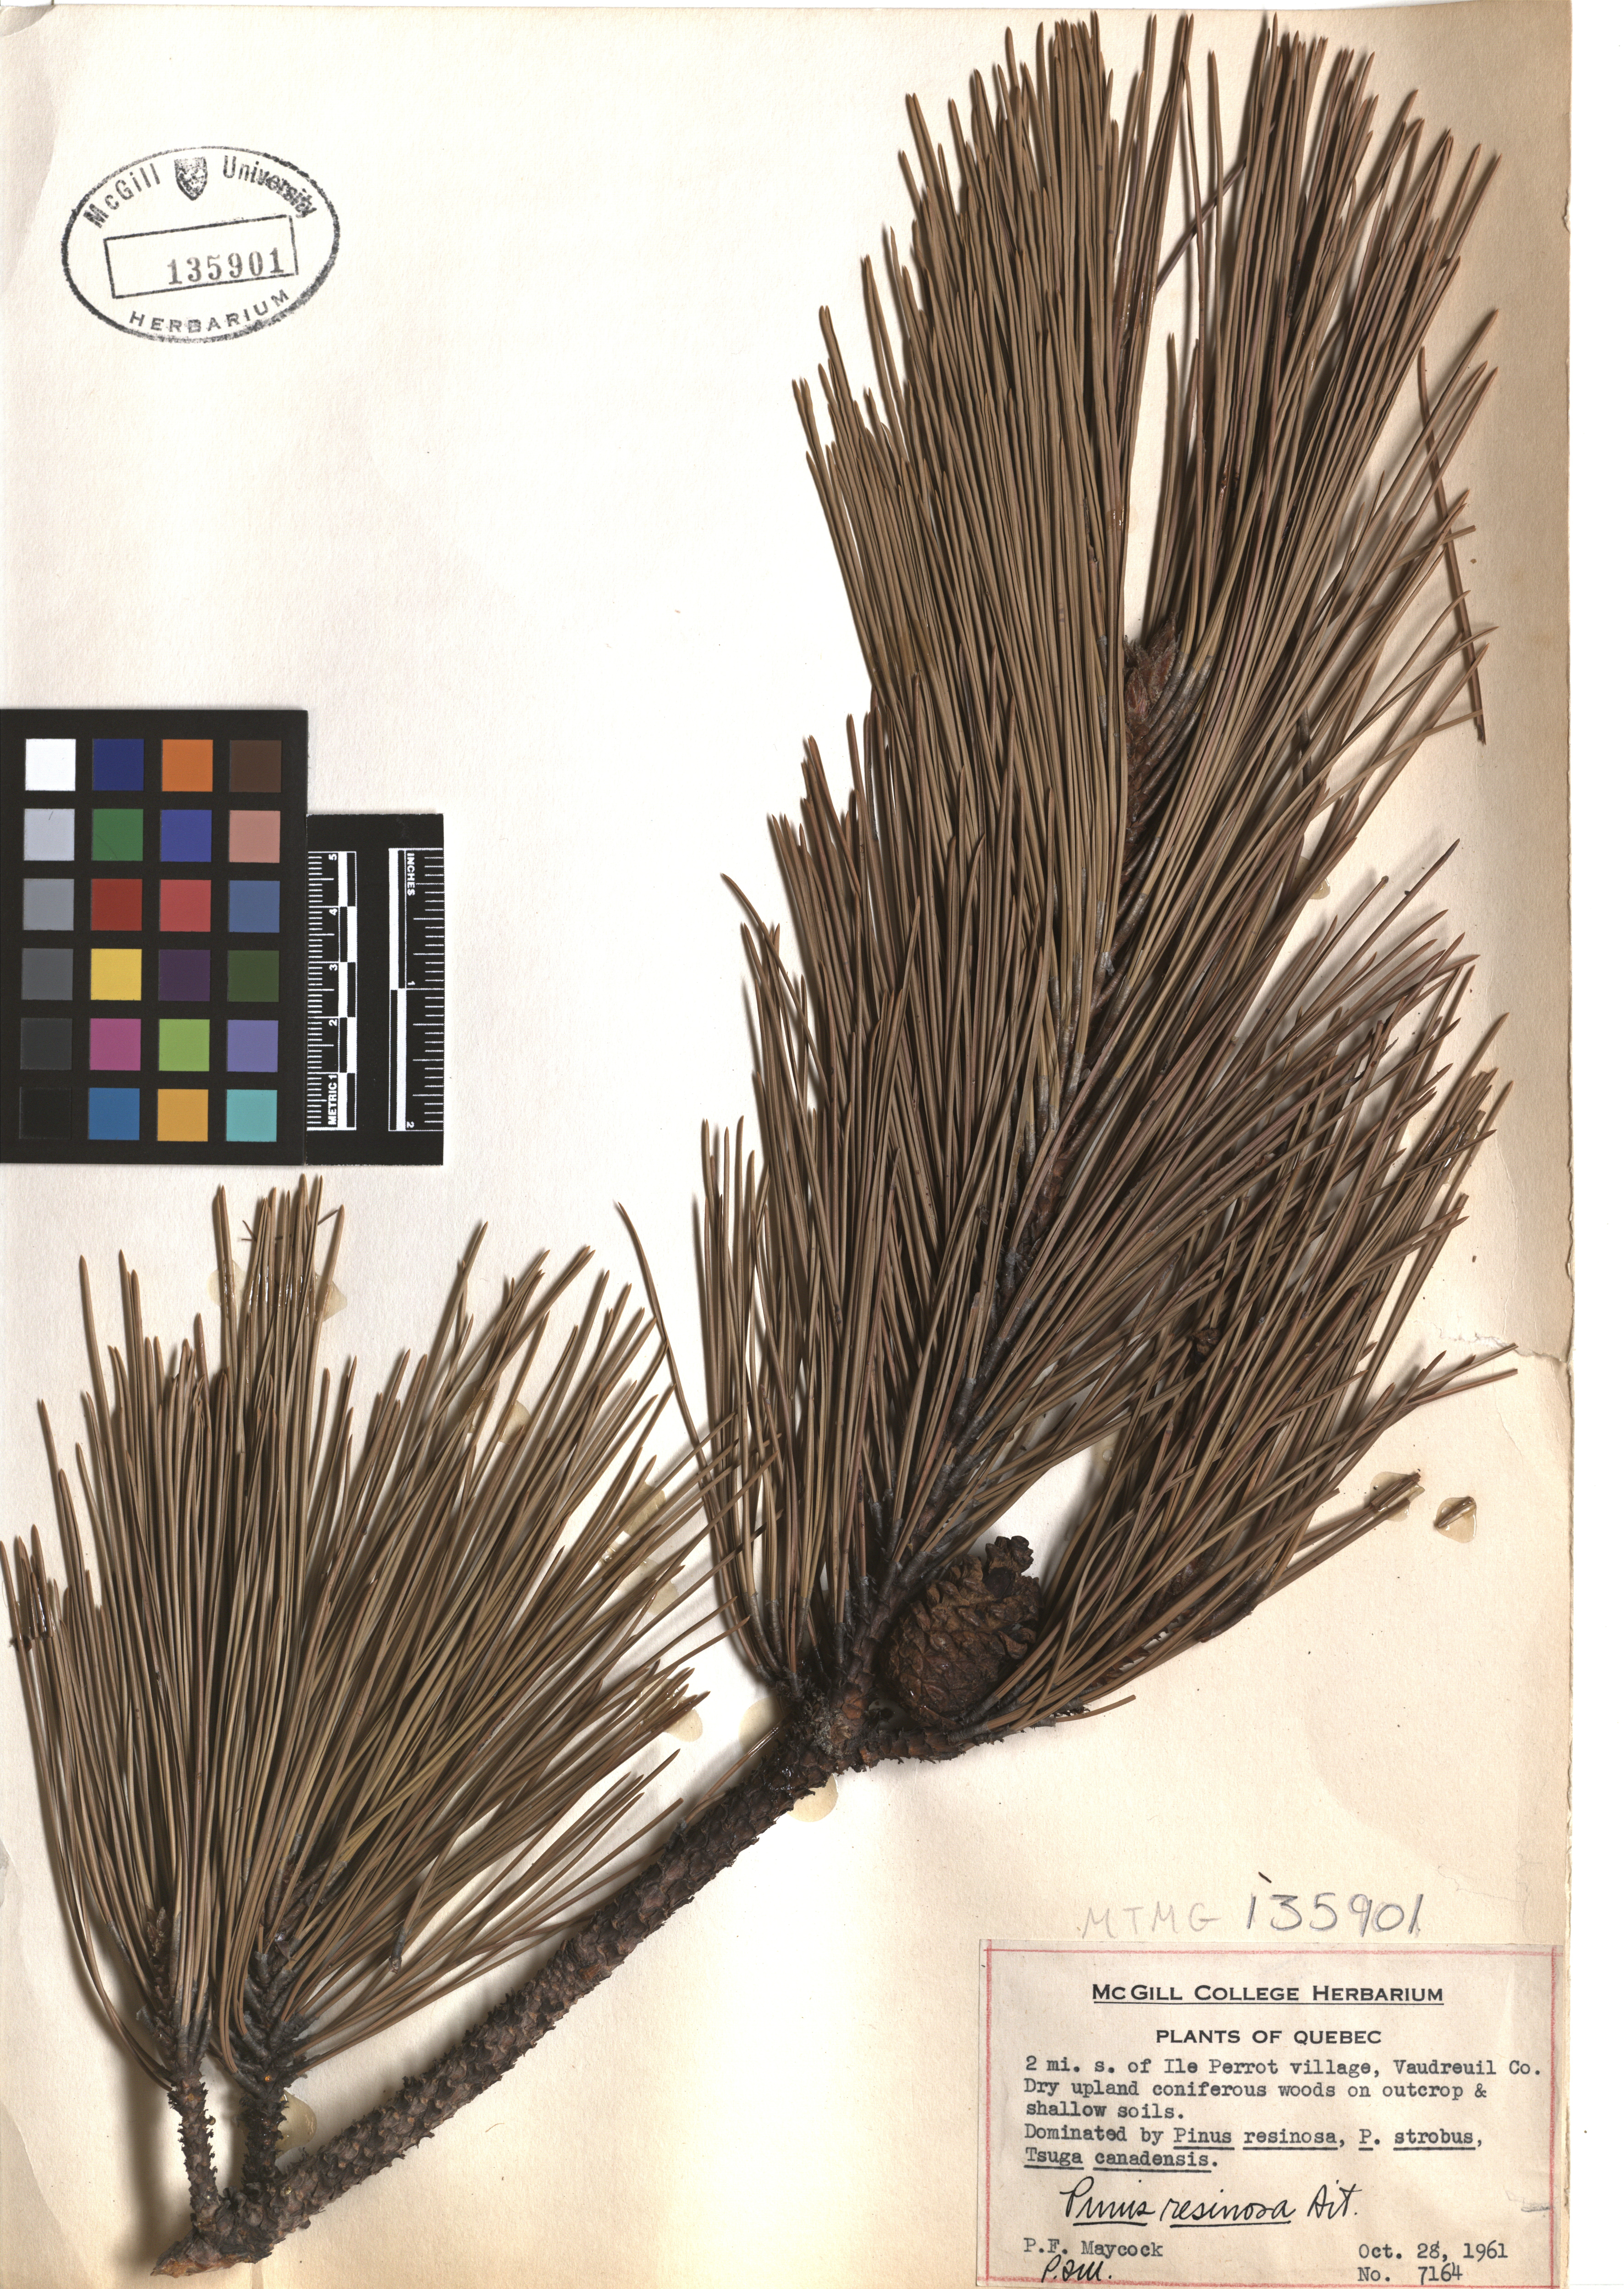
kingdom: Plantae
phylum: Tracheophyta
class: Pinopsida
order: Pinales
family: Pinaceae
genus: Pinus
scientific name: Pinus hartwegii
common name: Hartweg's pine
